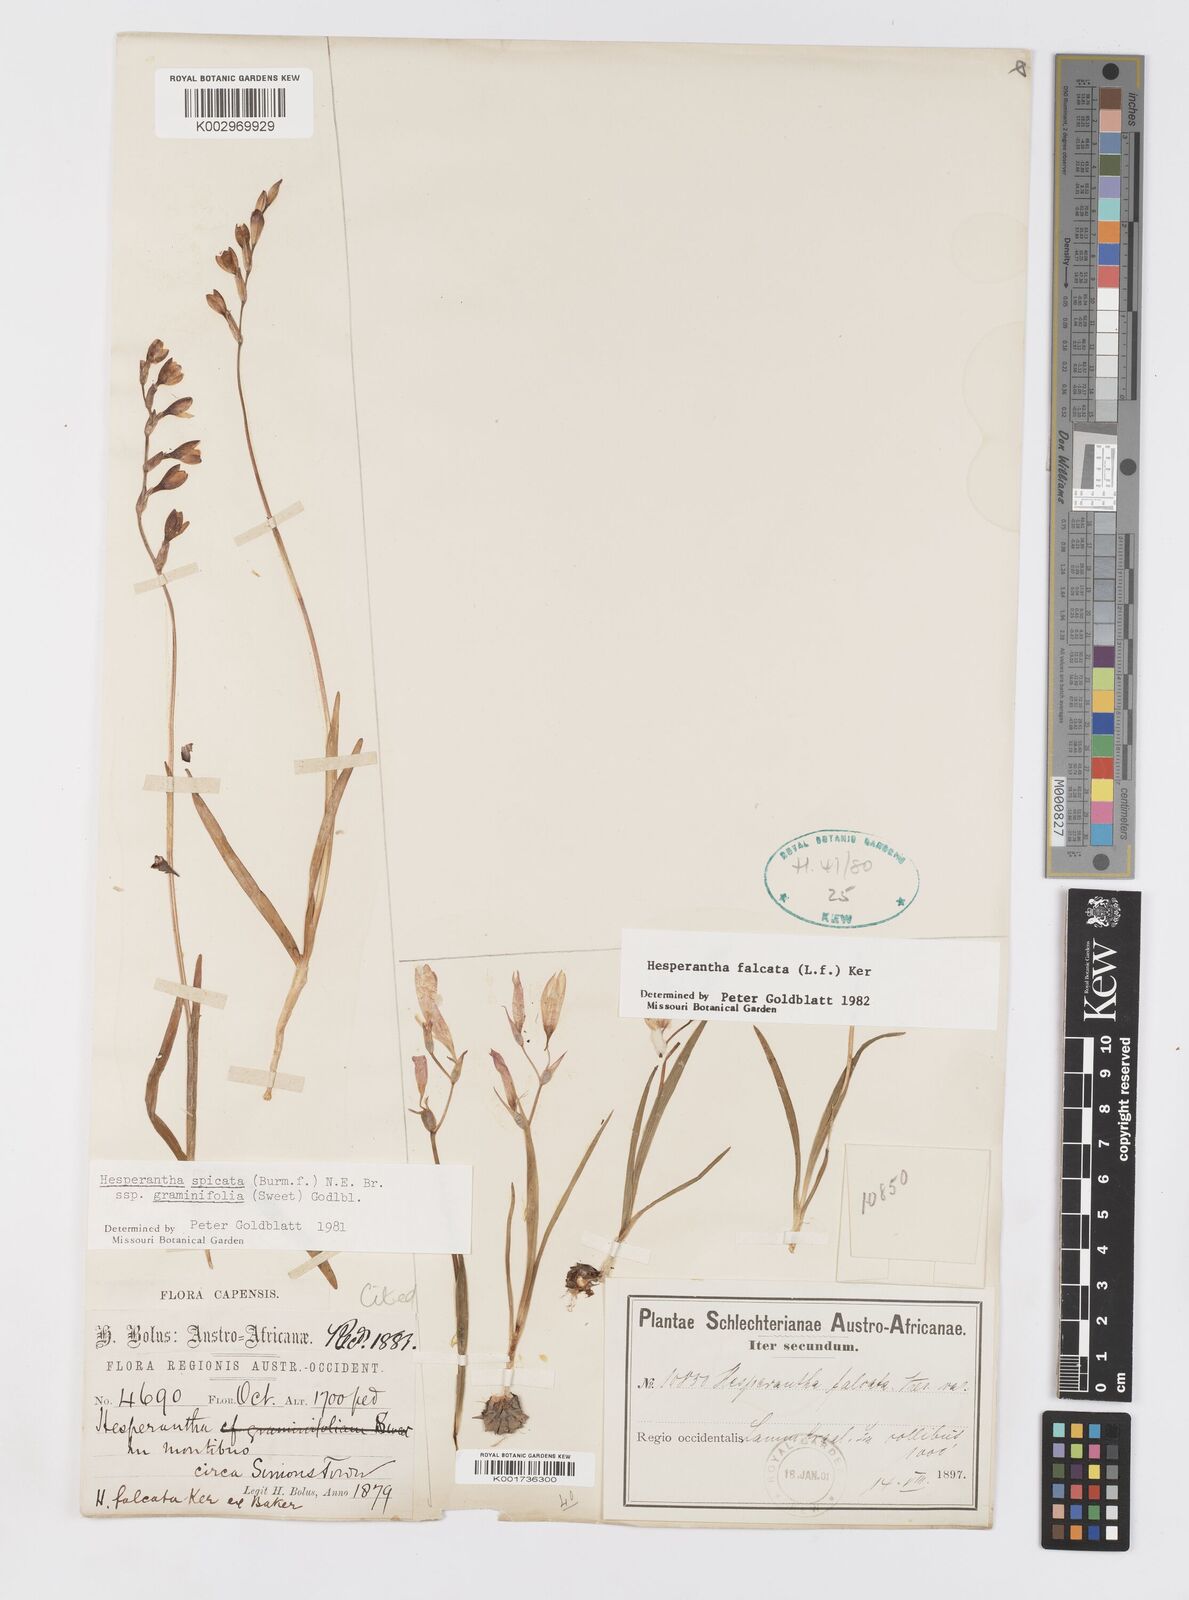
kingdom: Plantae
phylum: Tracheophyta
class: Liliopsida
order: Asparagales
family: Iridaceae
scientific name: Iridaceae
